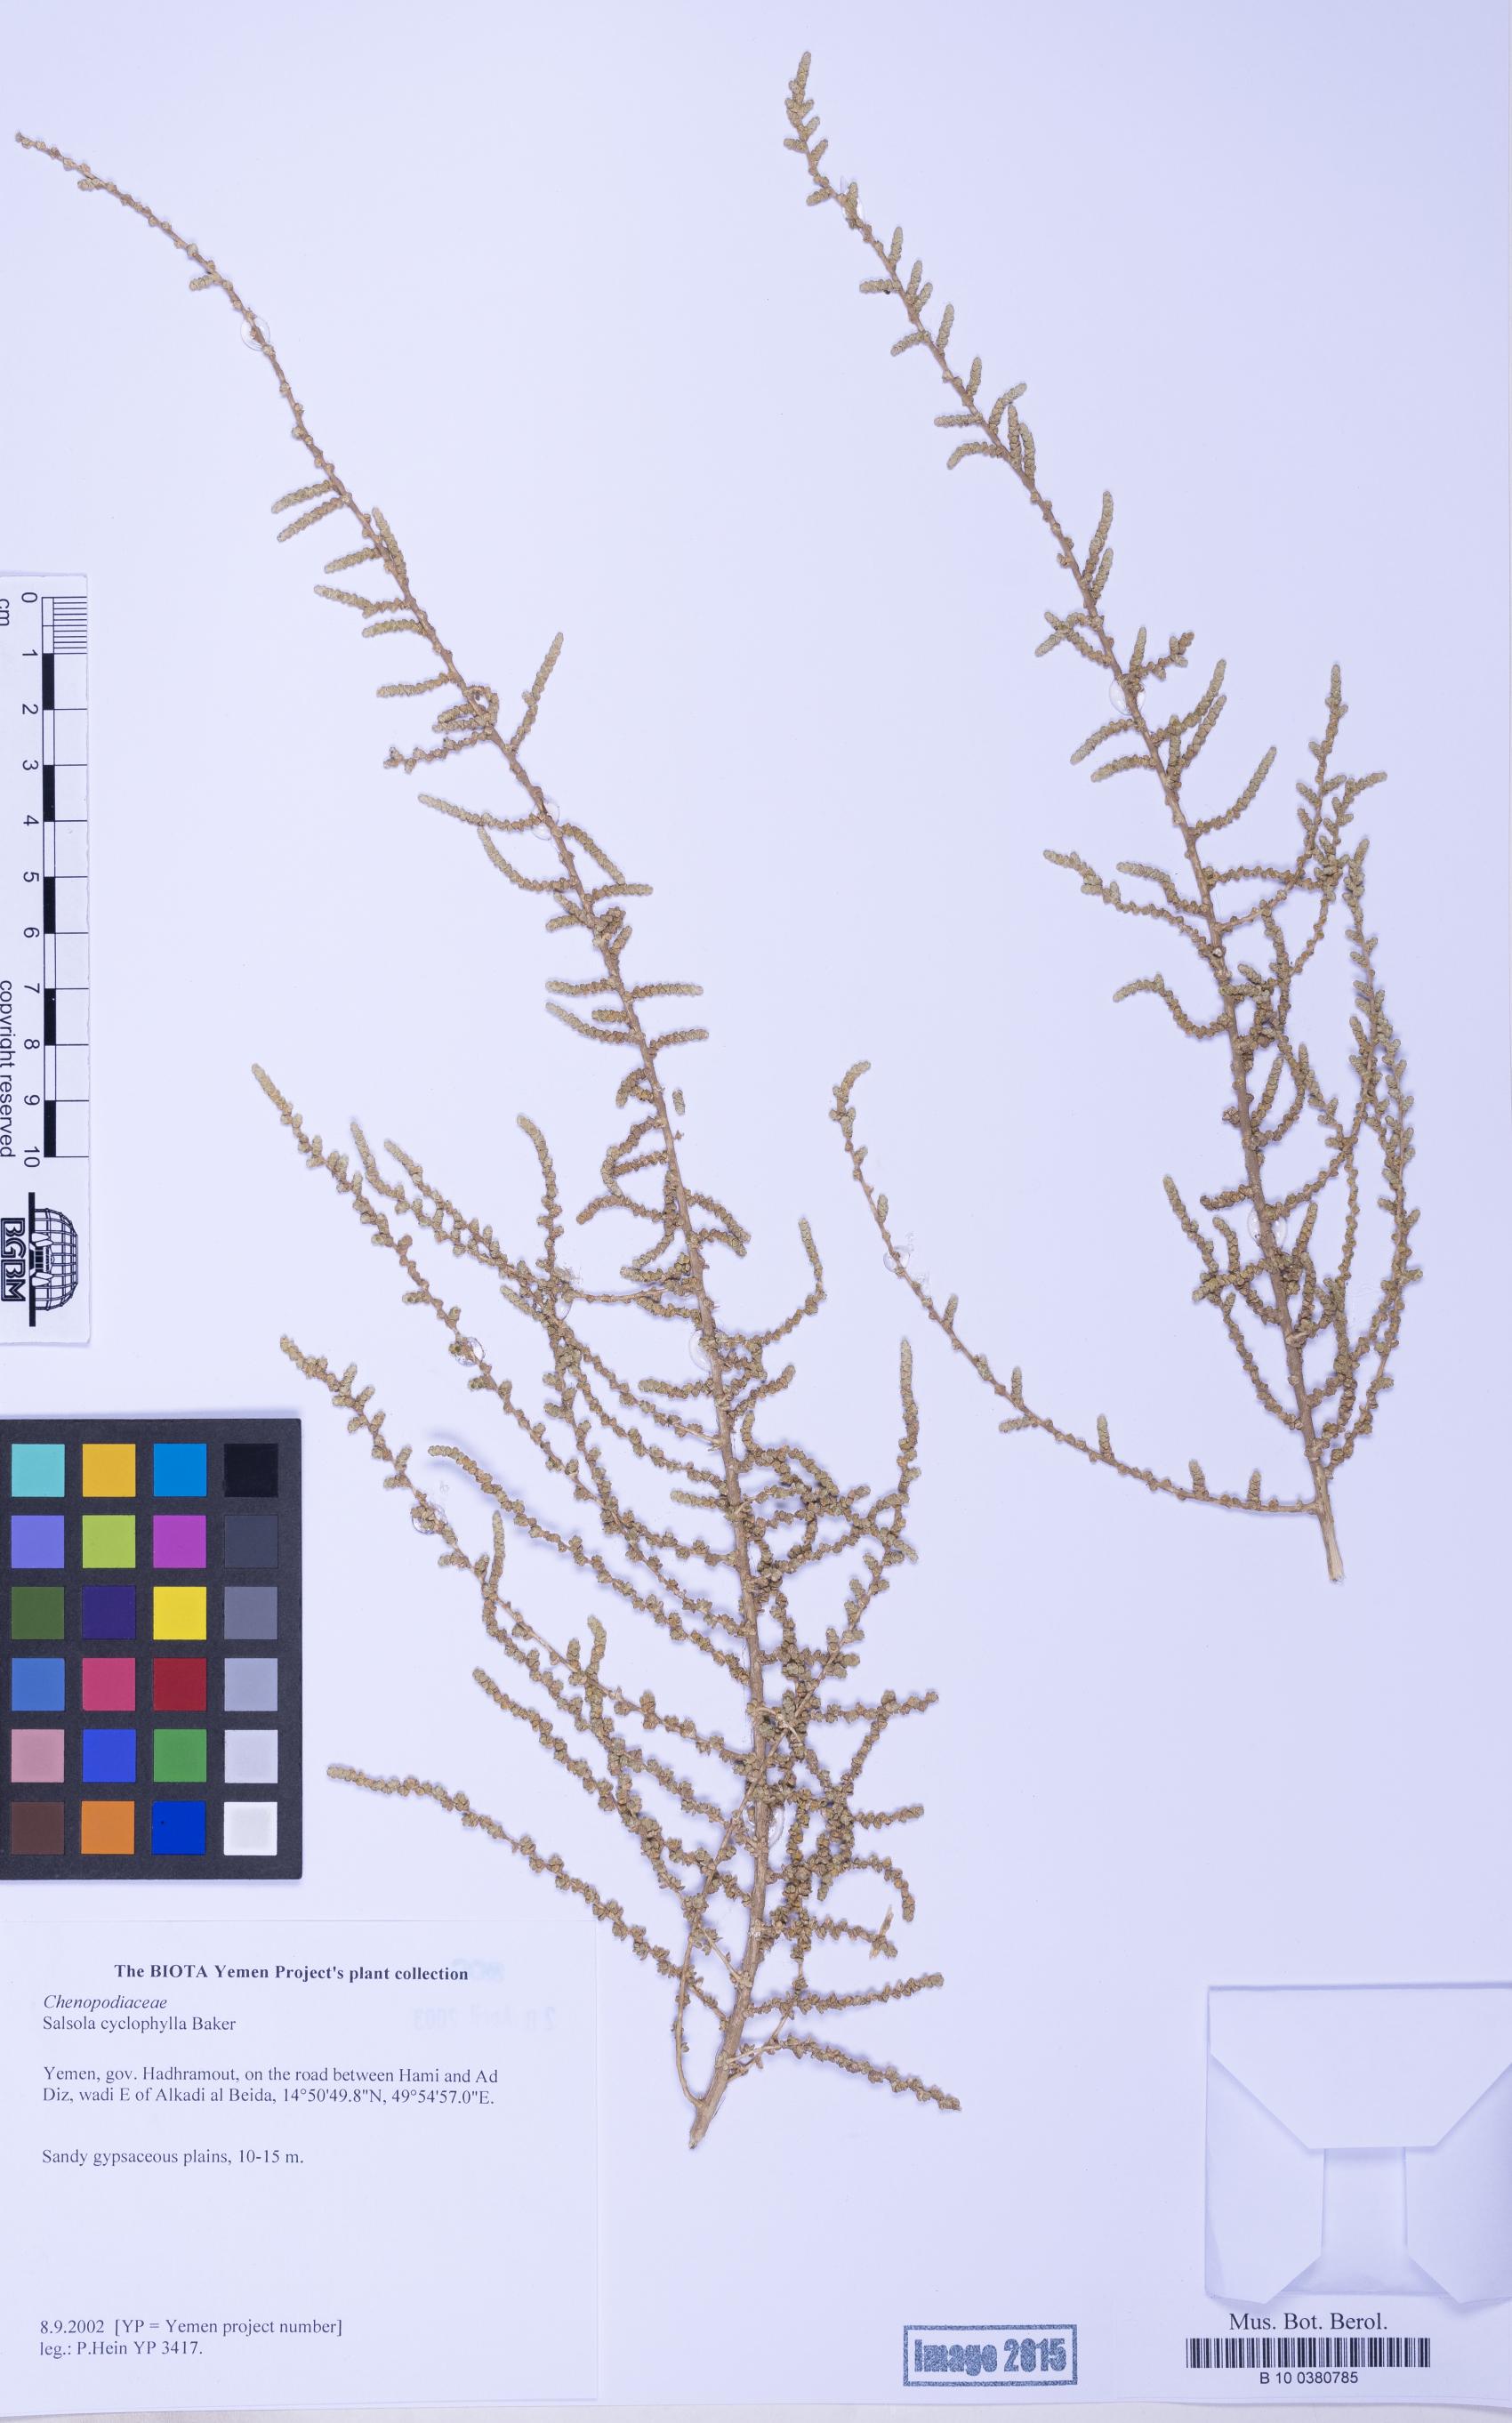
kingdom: Plantae
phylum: Tracheophyta
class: Magnoliopsida
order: Caryophyllales
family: Amaranthaceae
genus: Caroxylon
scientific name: Caroxylon cyclophyllum
